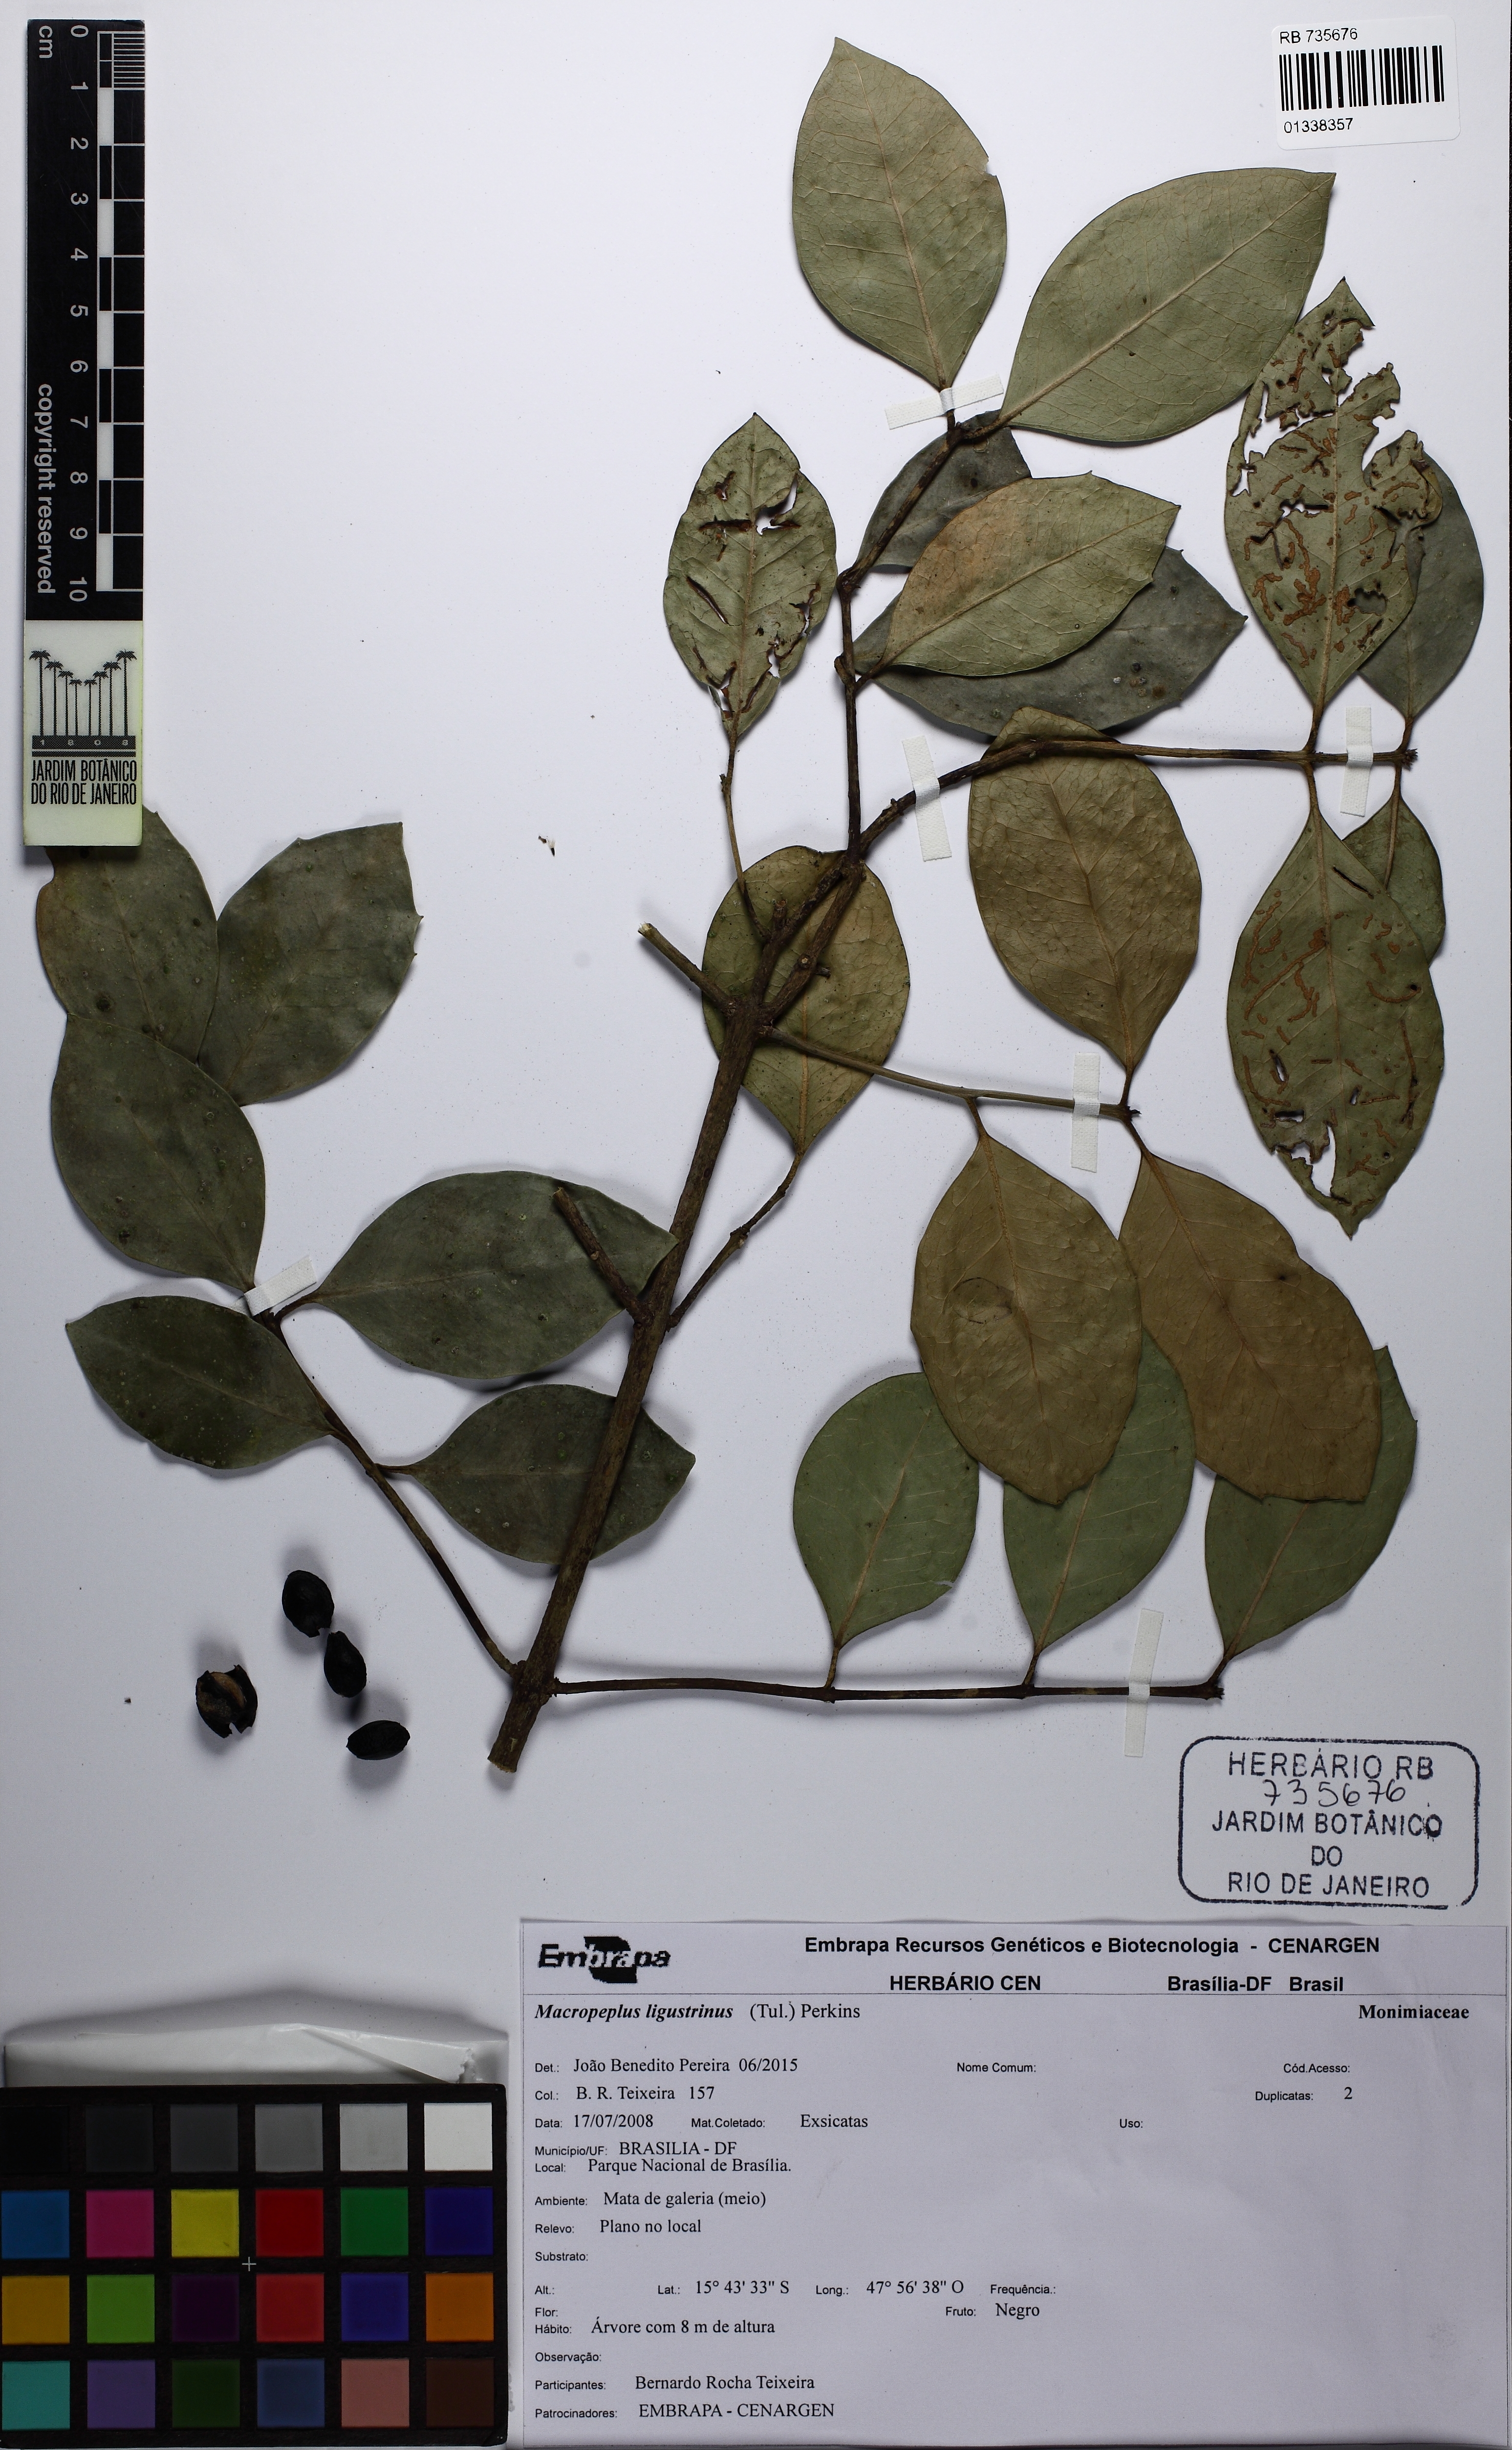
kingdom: Plantae
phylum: Tracheophyta
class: Magnoliopsida
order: Laurales
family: Monimiaceae
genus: Macropeplus
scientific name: Macropeplus ligustrinus
